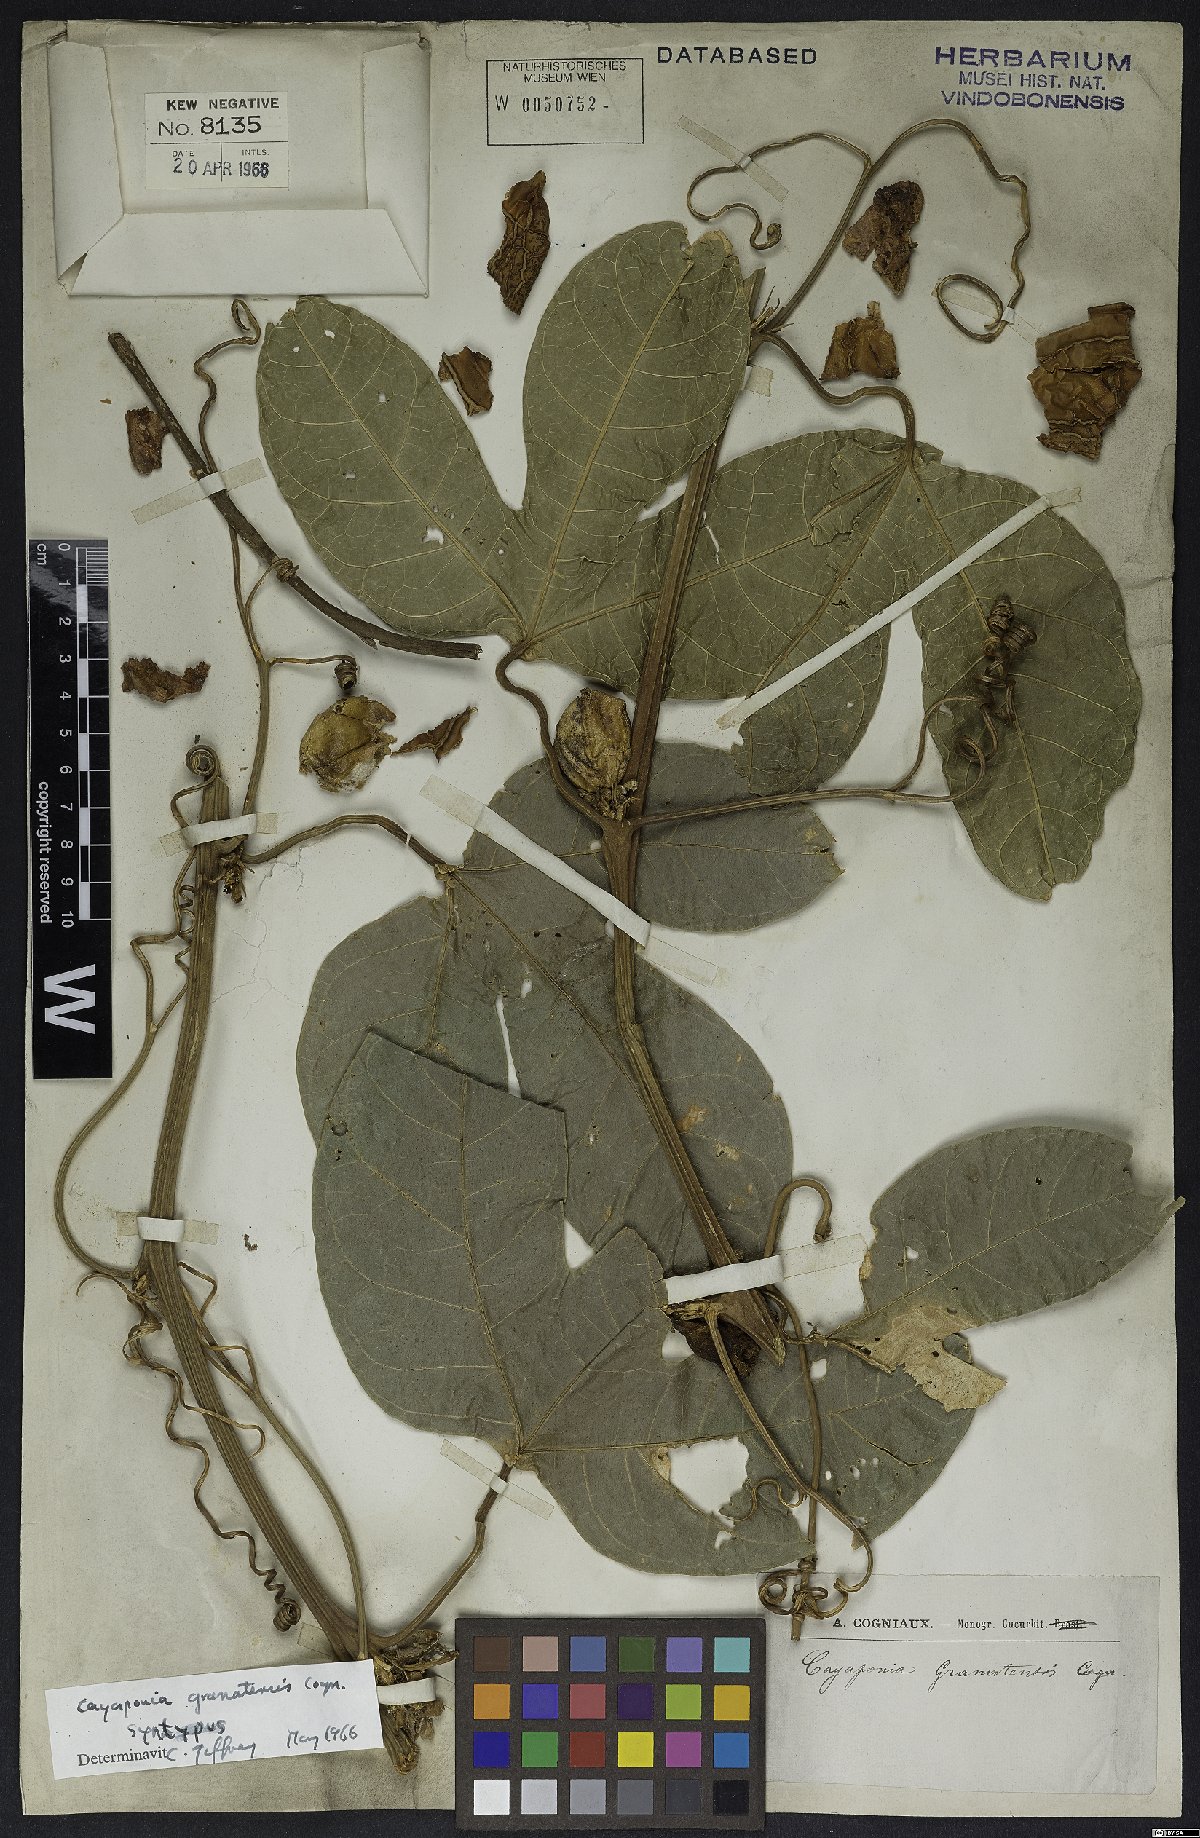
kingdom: Plantae
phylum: Tracheophyta
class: Magnoliopsida
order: Cucurbitales
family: Cucurbitaceae
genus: Cayaponia
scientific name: Cayaponia granatensis
